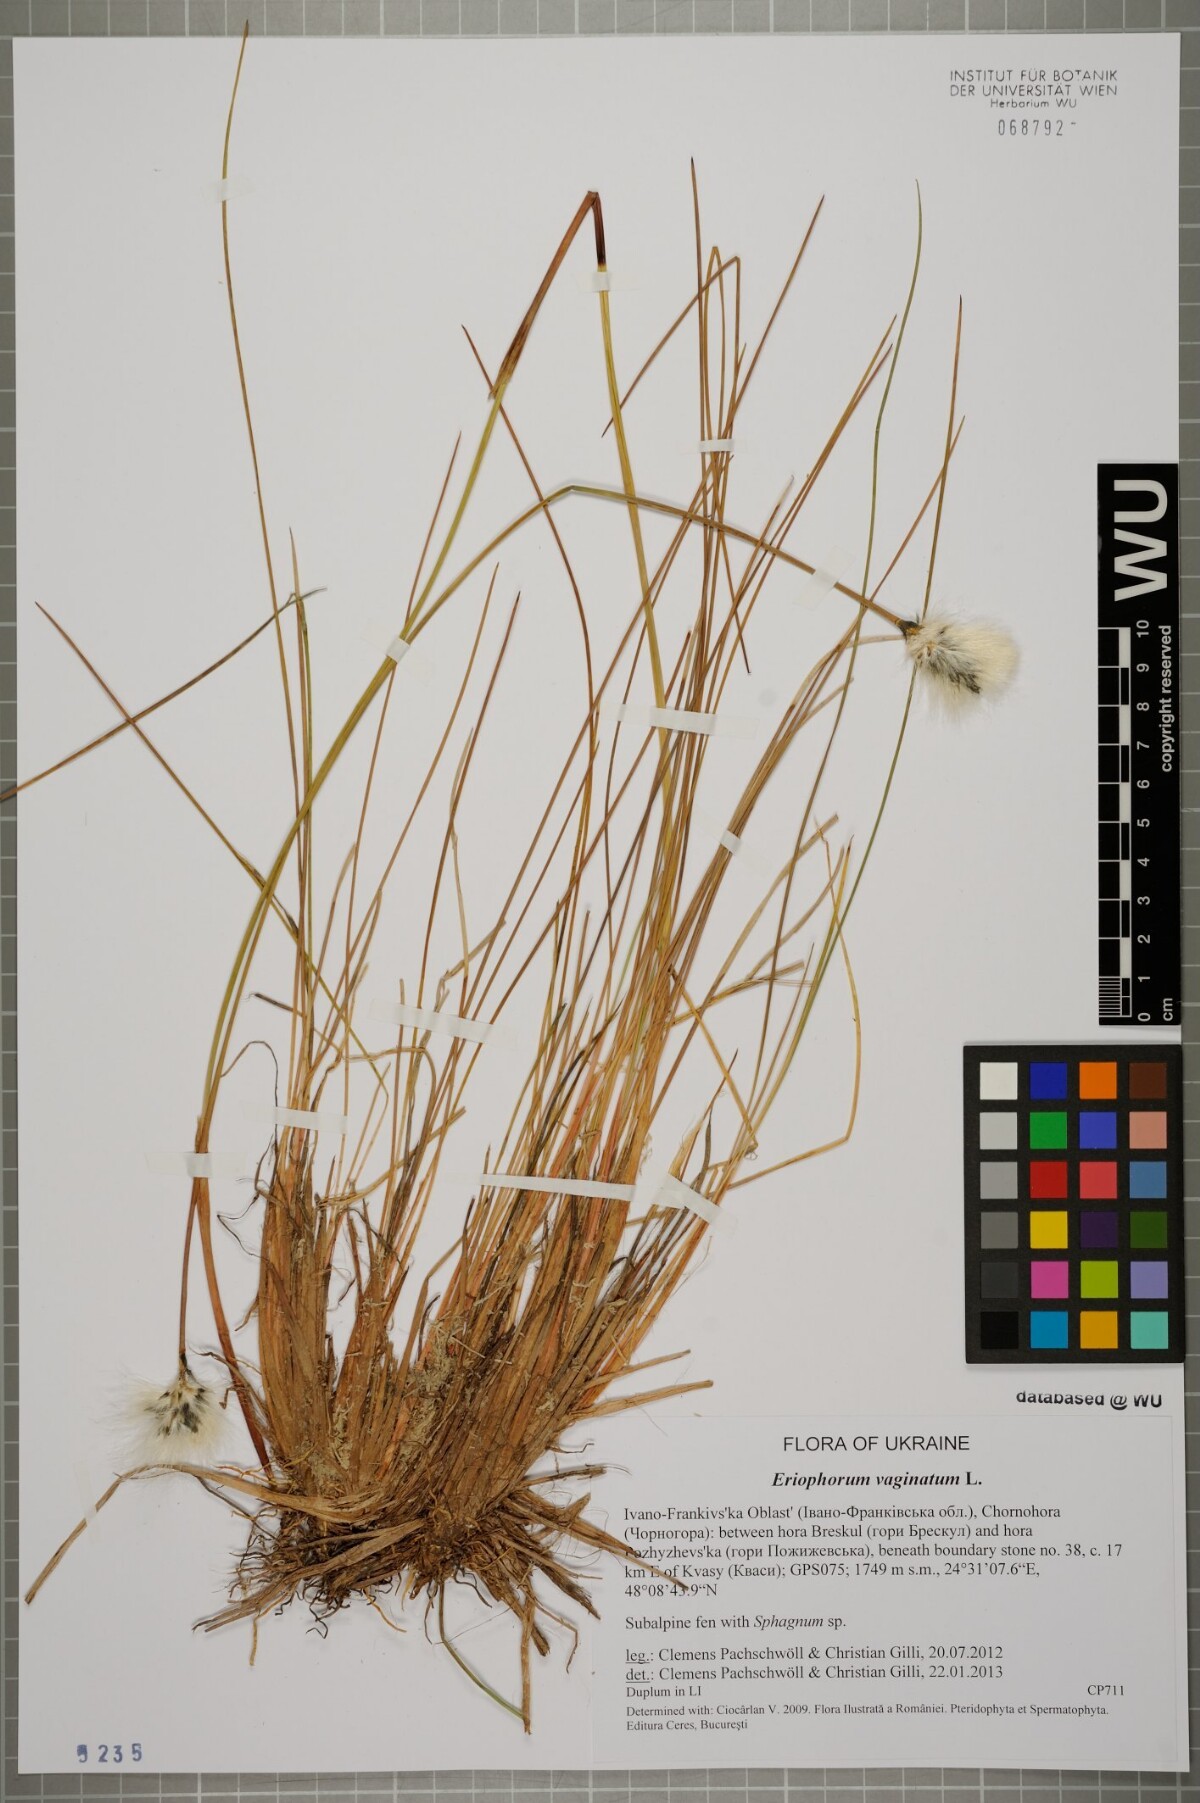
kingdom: Plantae
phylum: Tracheophyta
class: Liliopsida
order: Poales
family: Cyperaceae
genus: Eriophorum
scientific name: Eriophorum vaginatum
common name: Hare's-tail cottongrass
